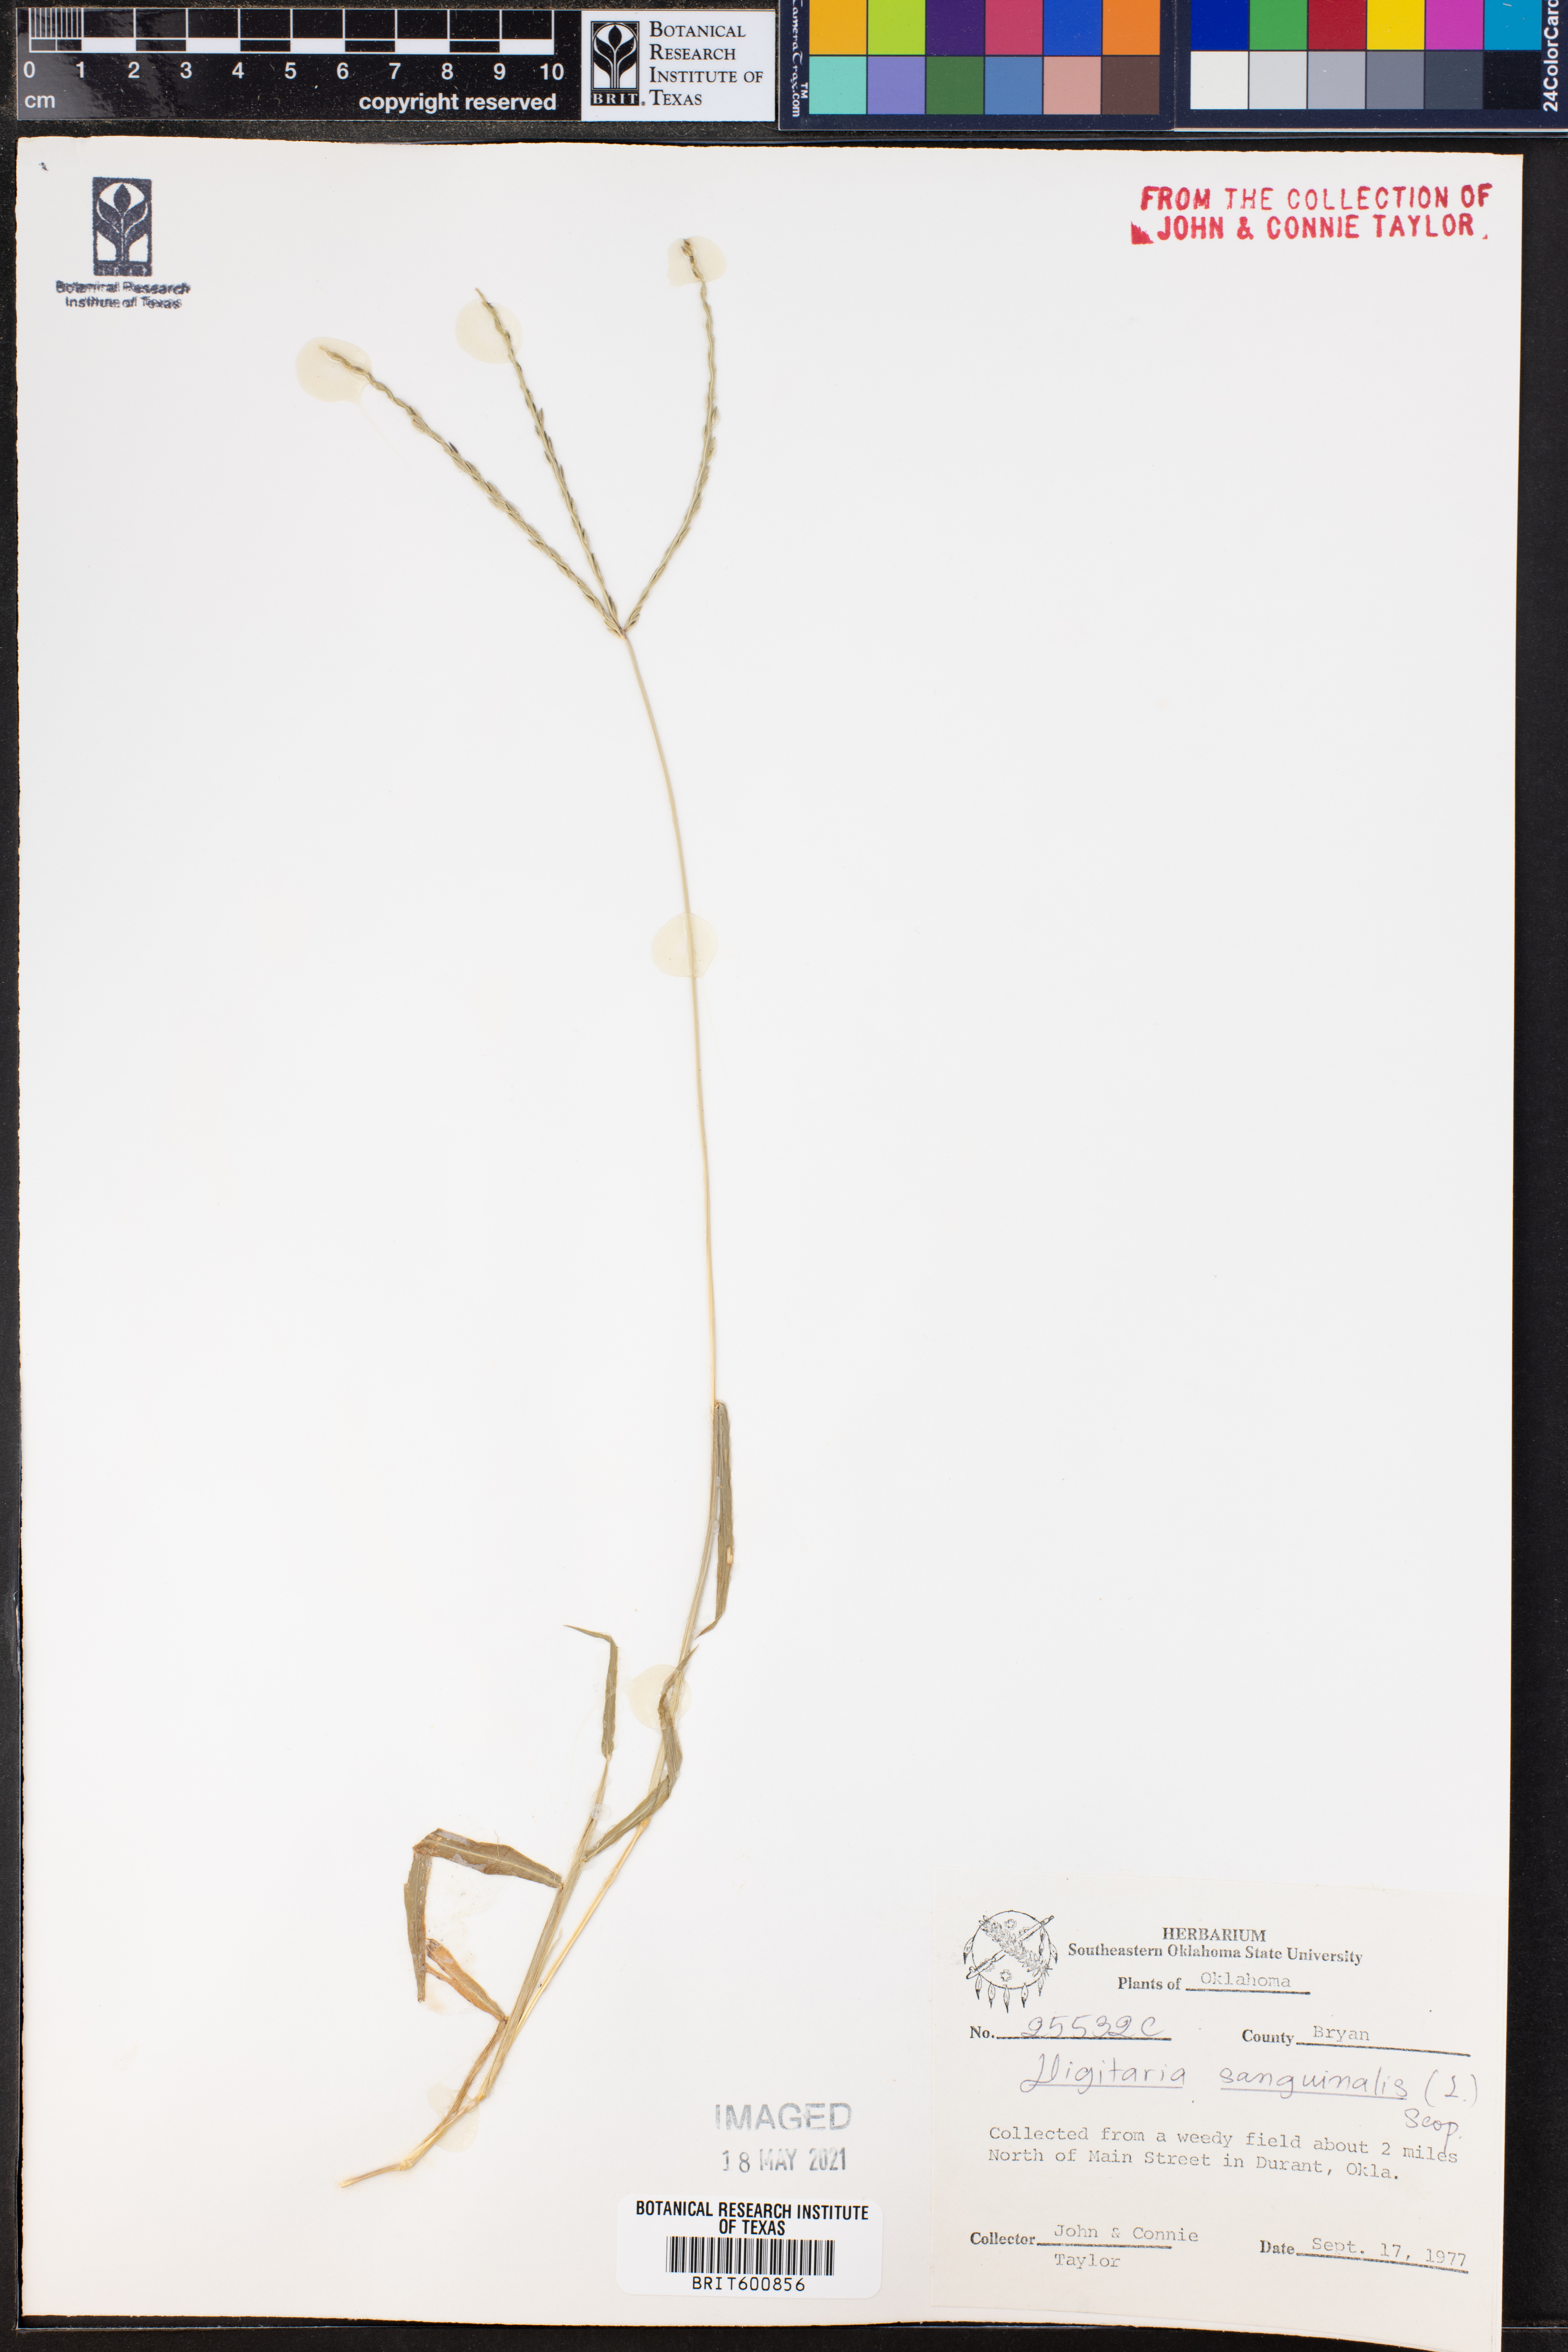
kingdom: Plantae
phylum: Tracheophyta
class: Liliopsida
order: Poales
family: Poaceae
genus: Digitaria
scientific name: Digitaria sanguinalis
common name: Hairy crabgrass
